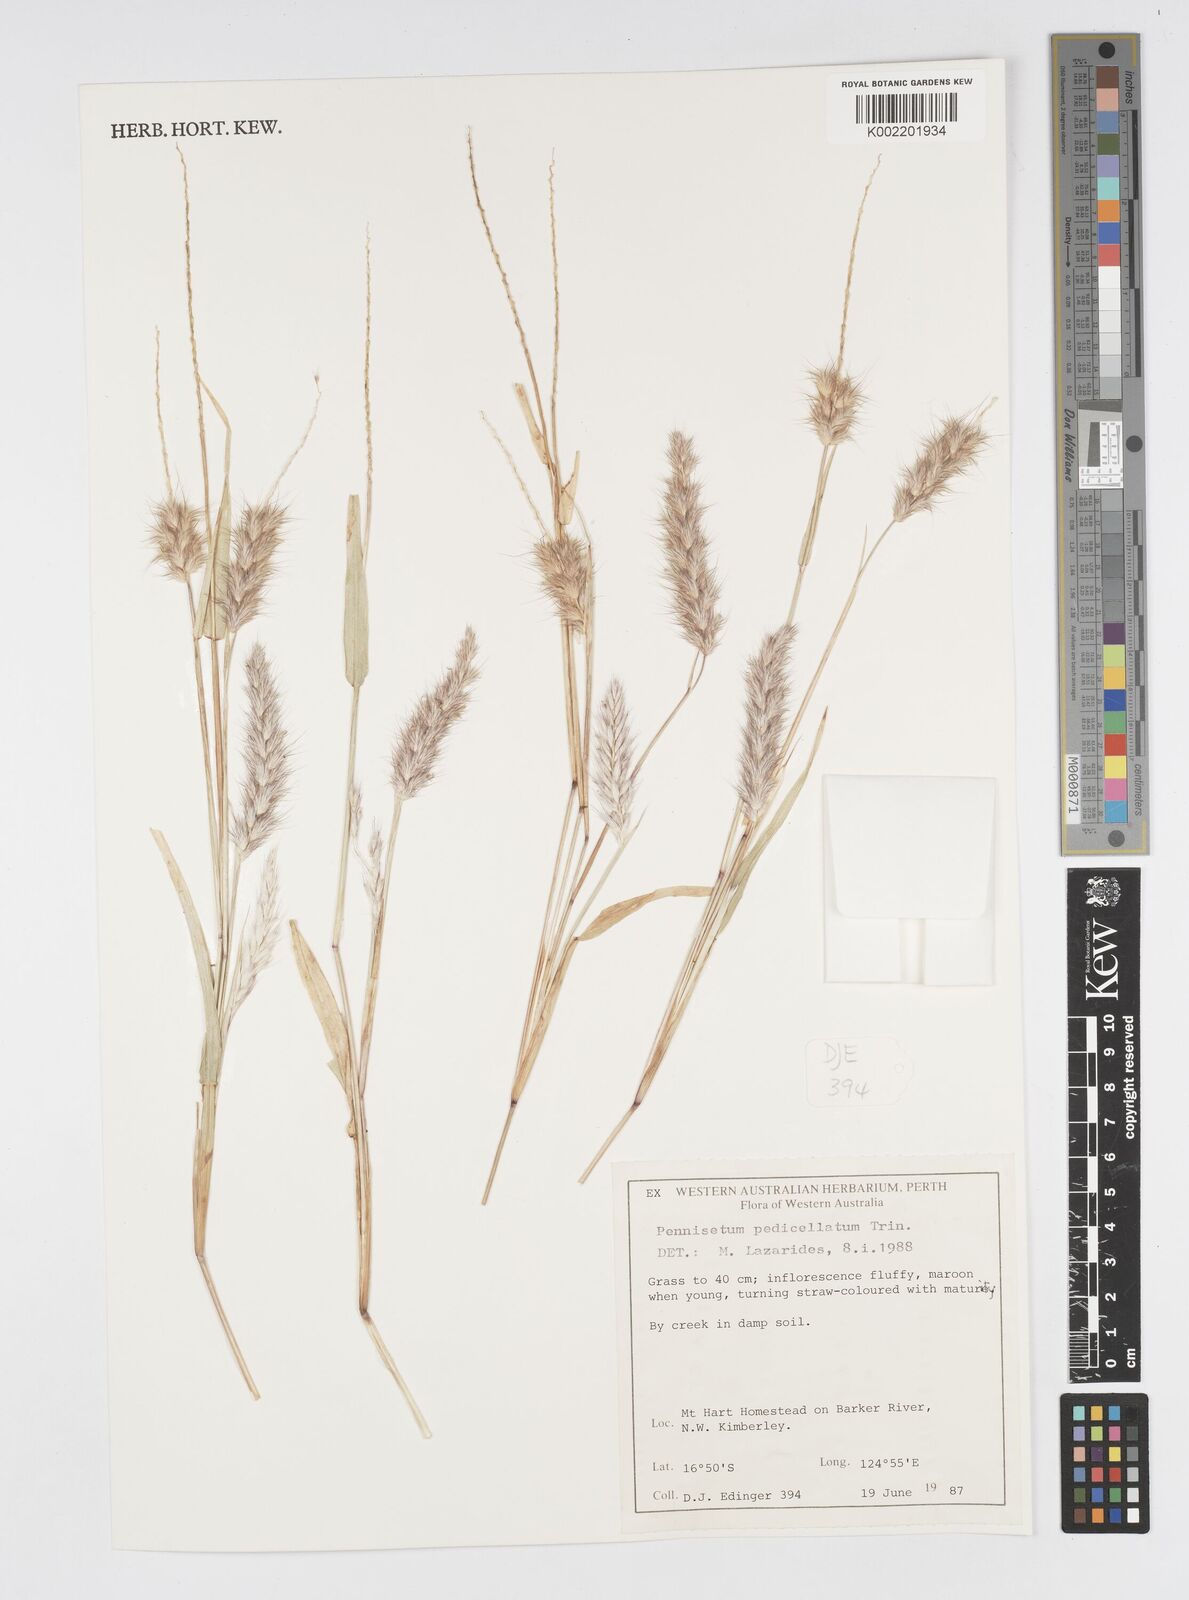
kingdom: Plantae
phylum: Tracheophyta
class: Liliopsida
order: Poales
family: Poaceae
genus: Cenchrus
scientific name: Cenchrus pedicellatus
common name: Hairy fountain grass
